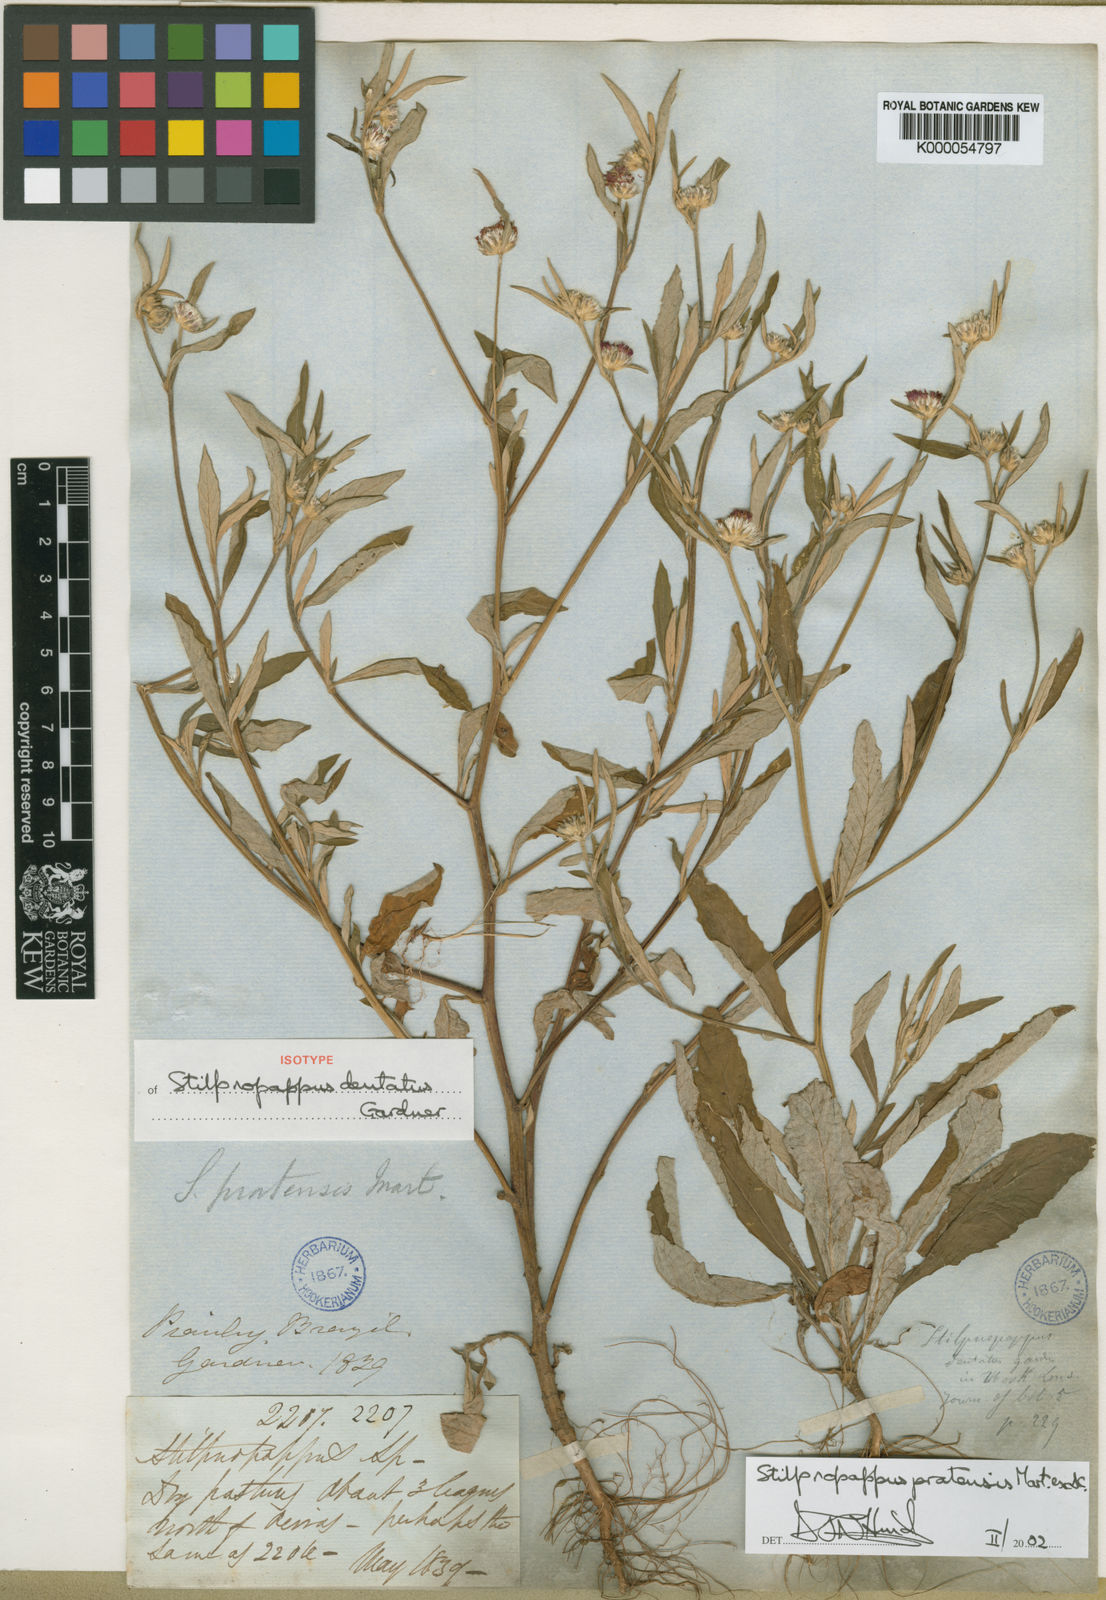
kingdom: Plantae
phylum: Tracheophyta
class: Magnoliopsida
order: Asterales
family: Asteraceae
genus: Stilpnopappus
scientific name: Stilpnopappus pratensis
